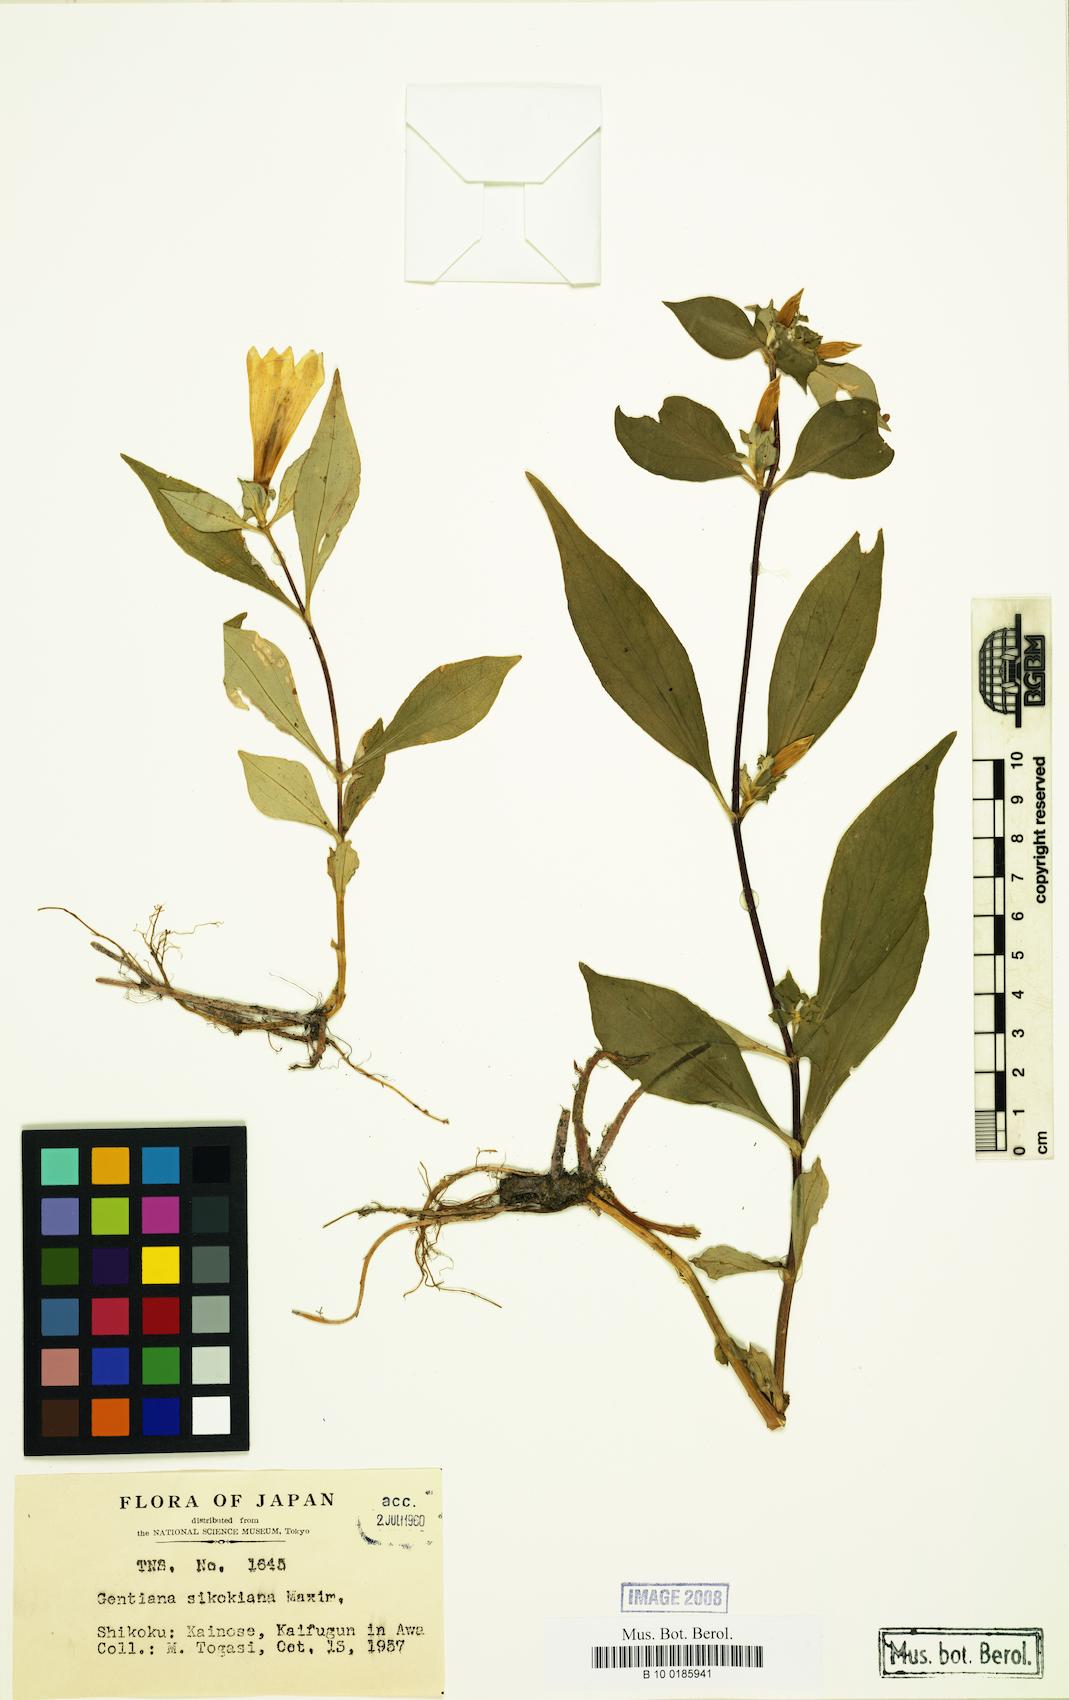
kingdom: Plantae
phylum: Tracheophyta
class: Magnoliopsida
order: Gentianales
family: Gentianaceae
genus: Gentiana
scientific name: Gentiana sikokiana
